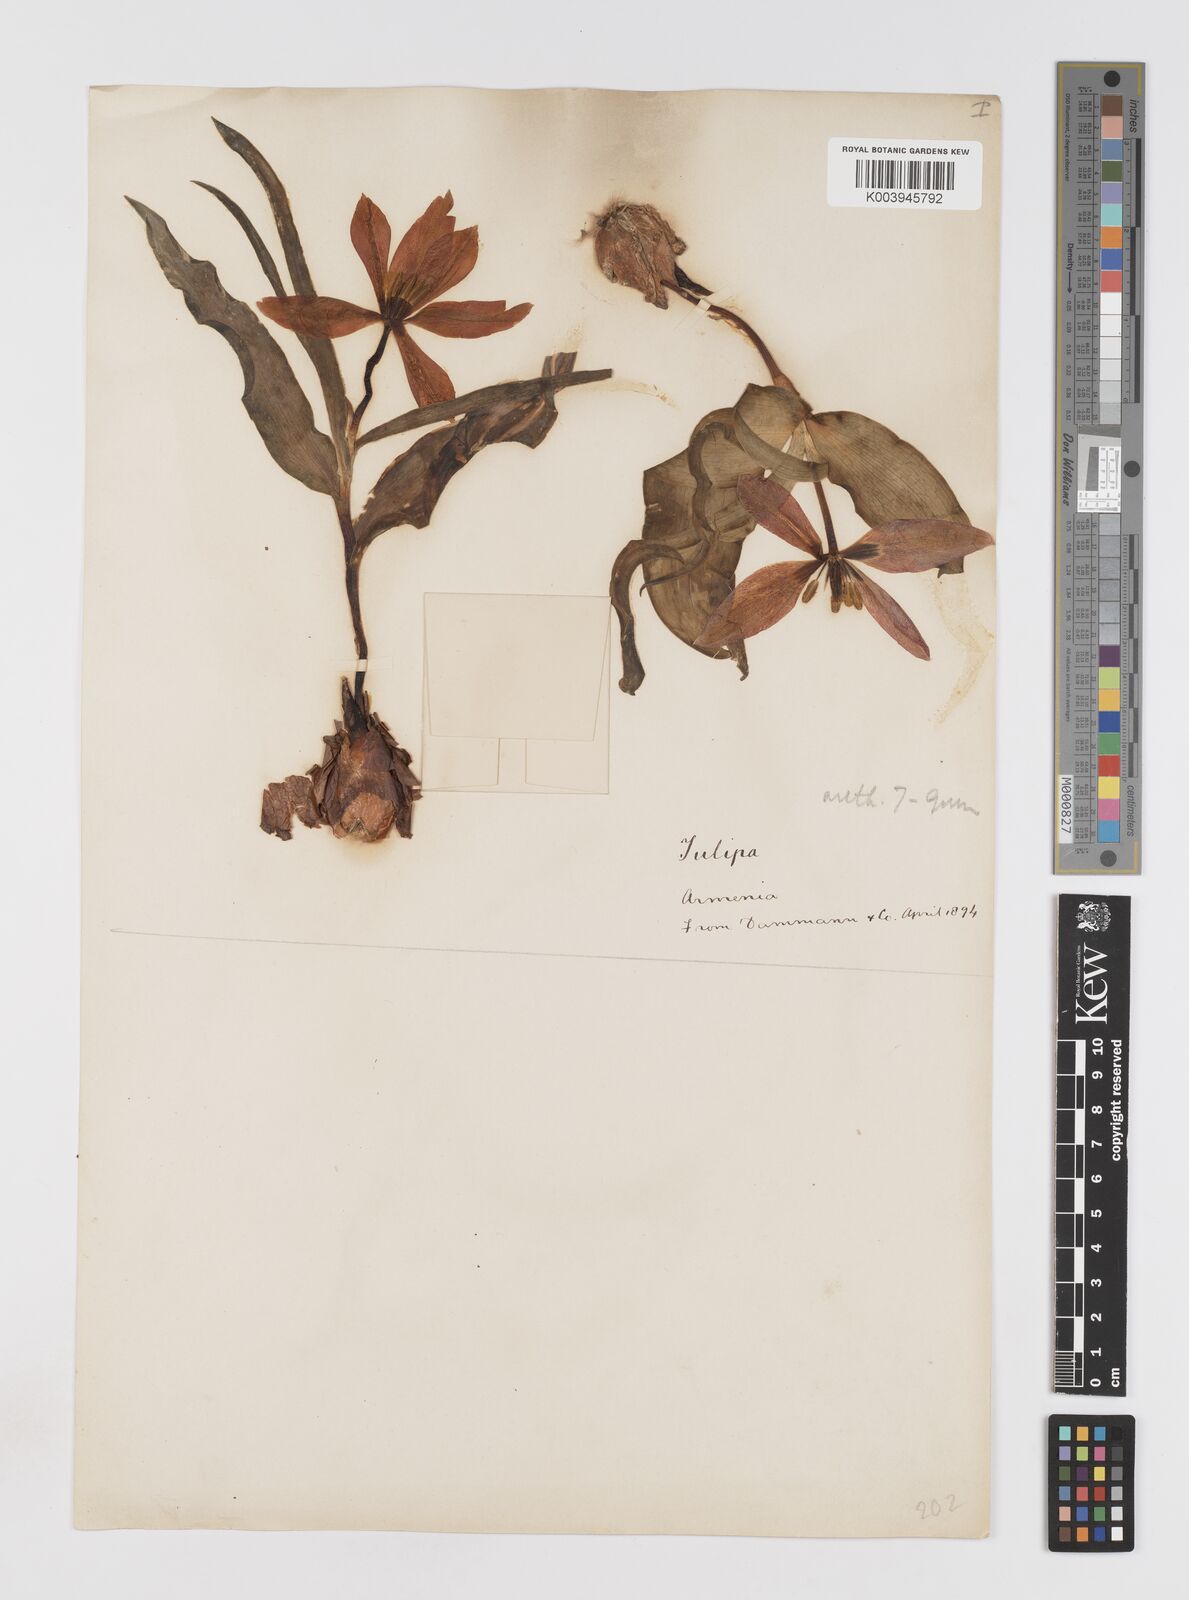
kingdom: Plantae
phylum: Tracheophyta
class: Liliopsida
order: Liliales
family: Liliaceae
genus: Tulipa
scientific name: Tulipa foliosa
